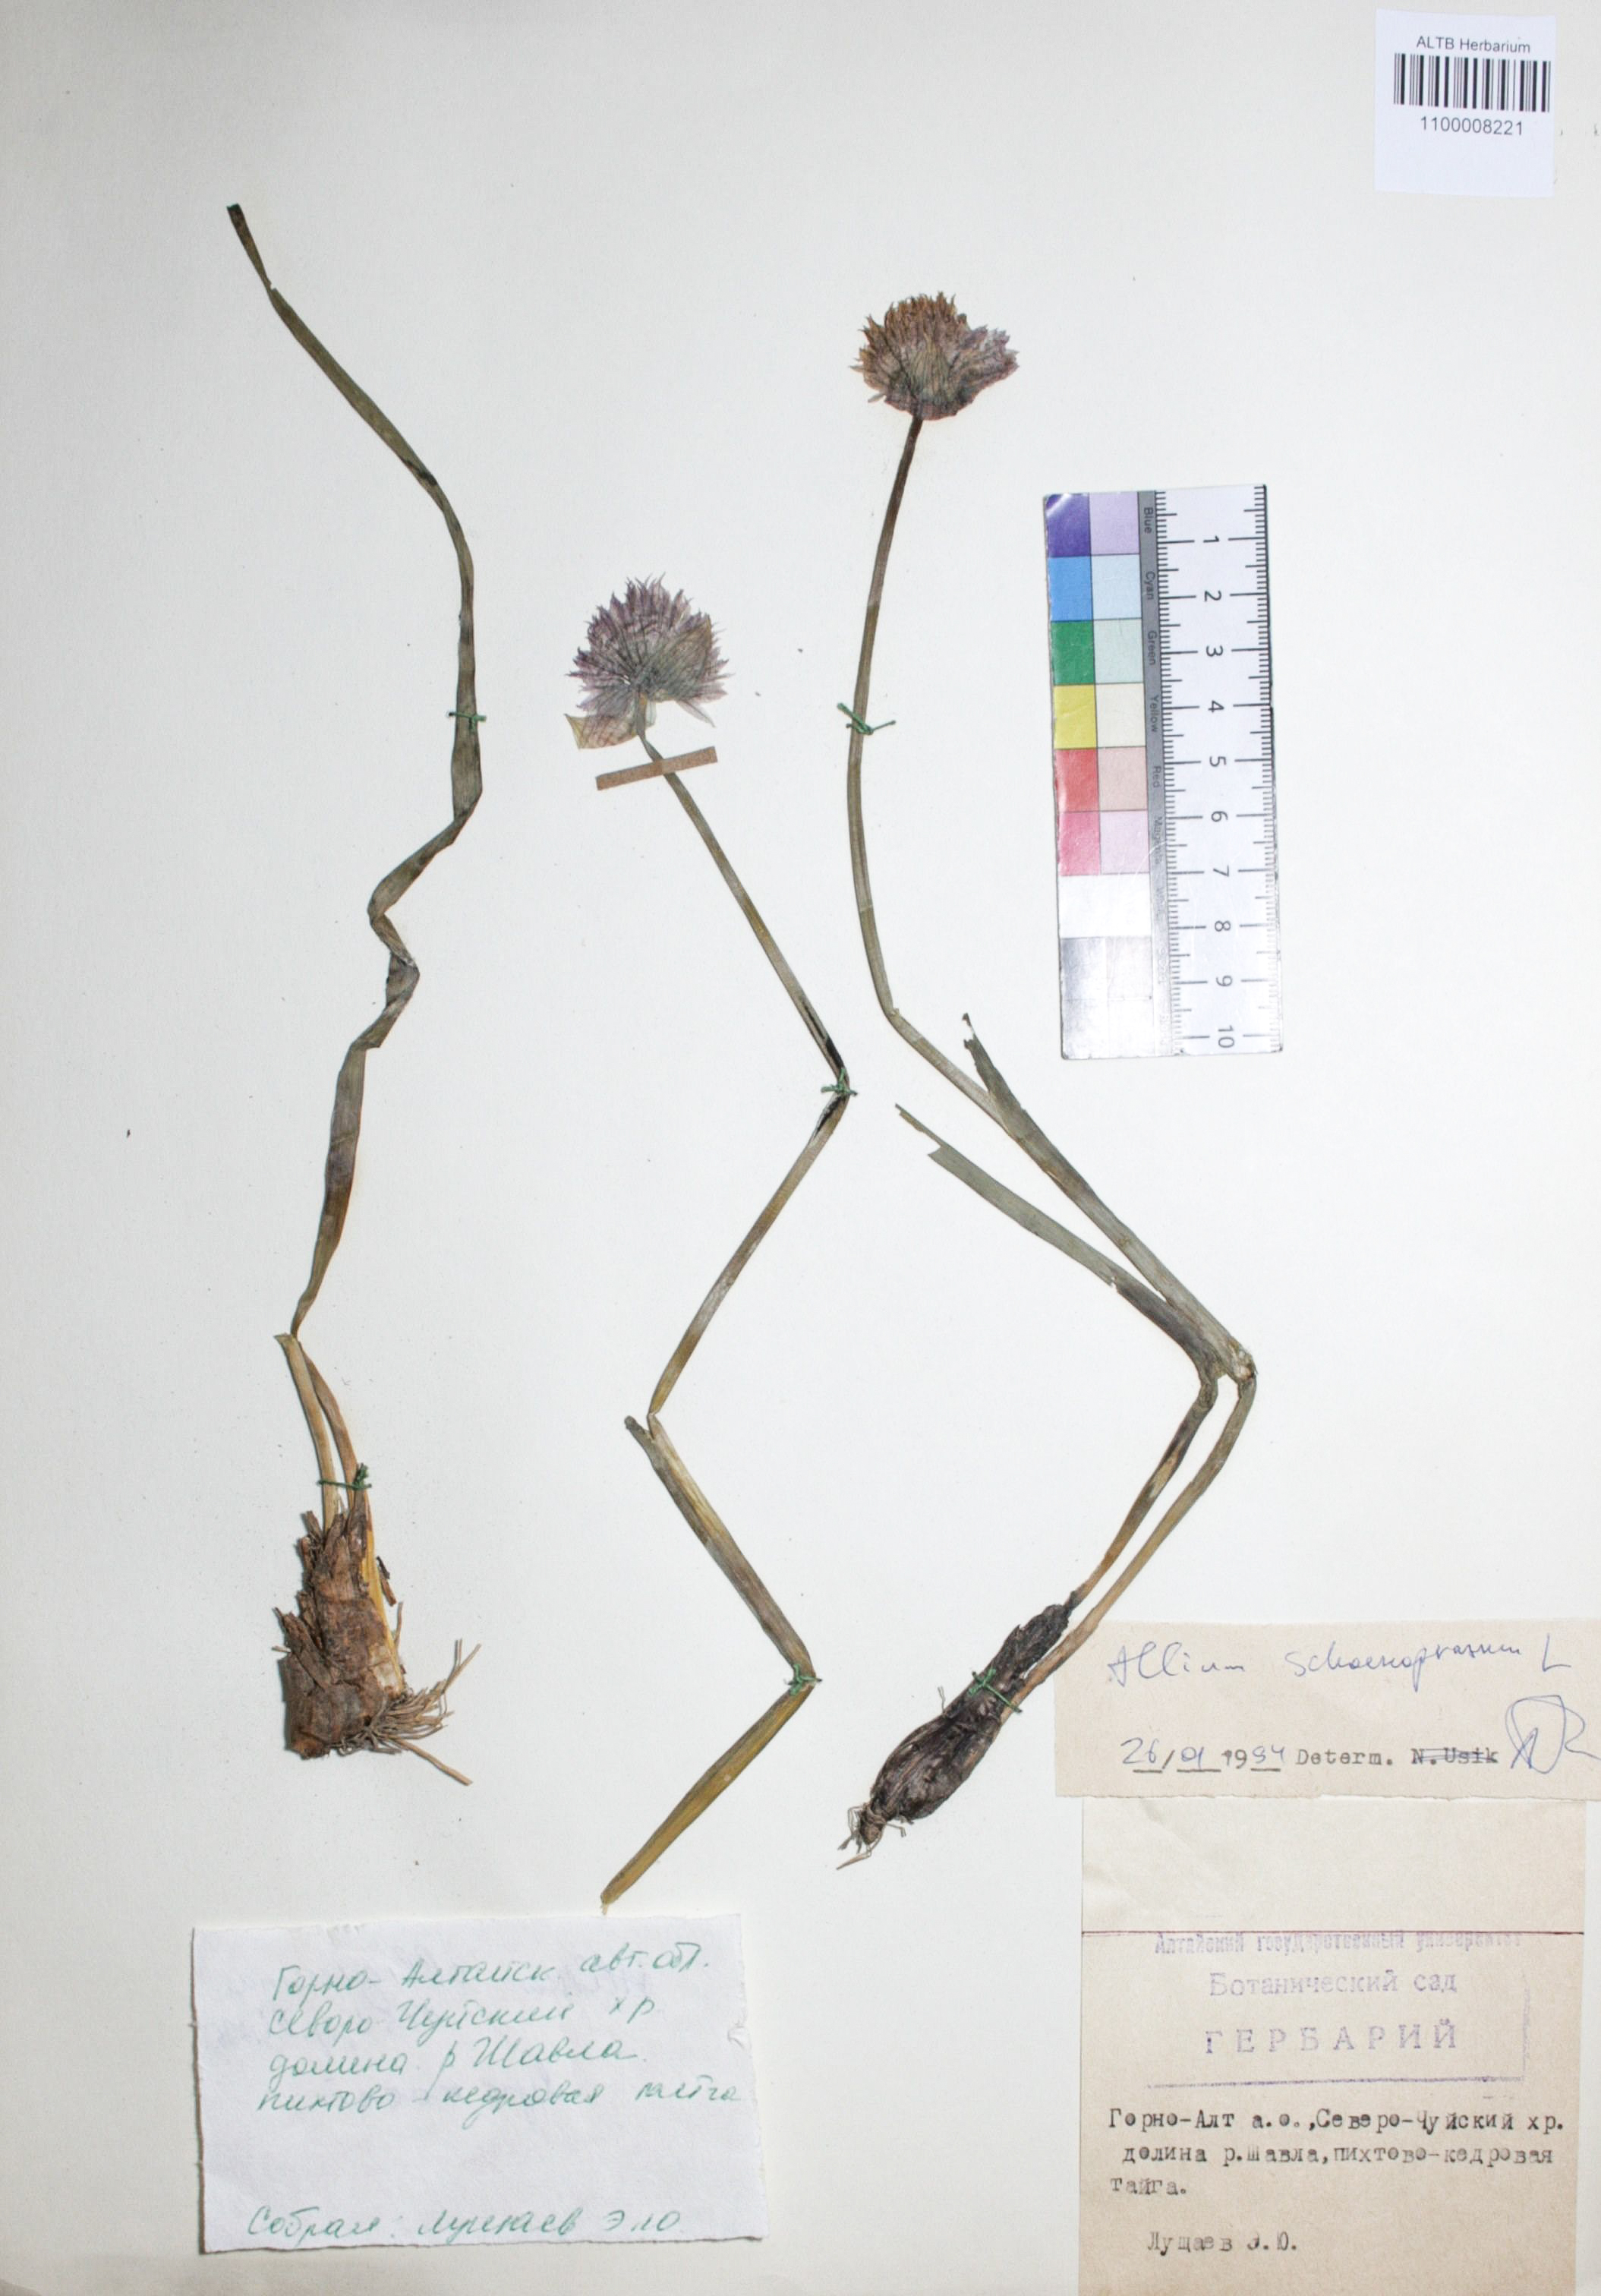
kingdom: Plantae
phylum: Tracheophyta
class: Liliopsida
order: Asparagales
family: Amaryllidaceae
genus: Allium
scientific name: Allium schoenoprasum
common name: Chives
